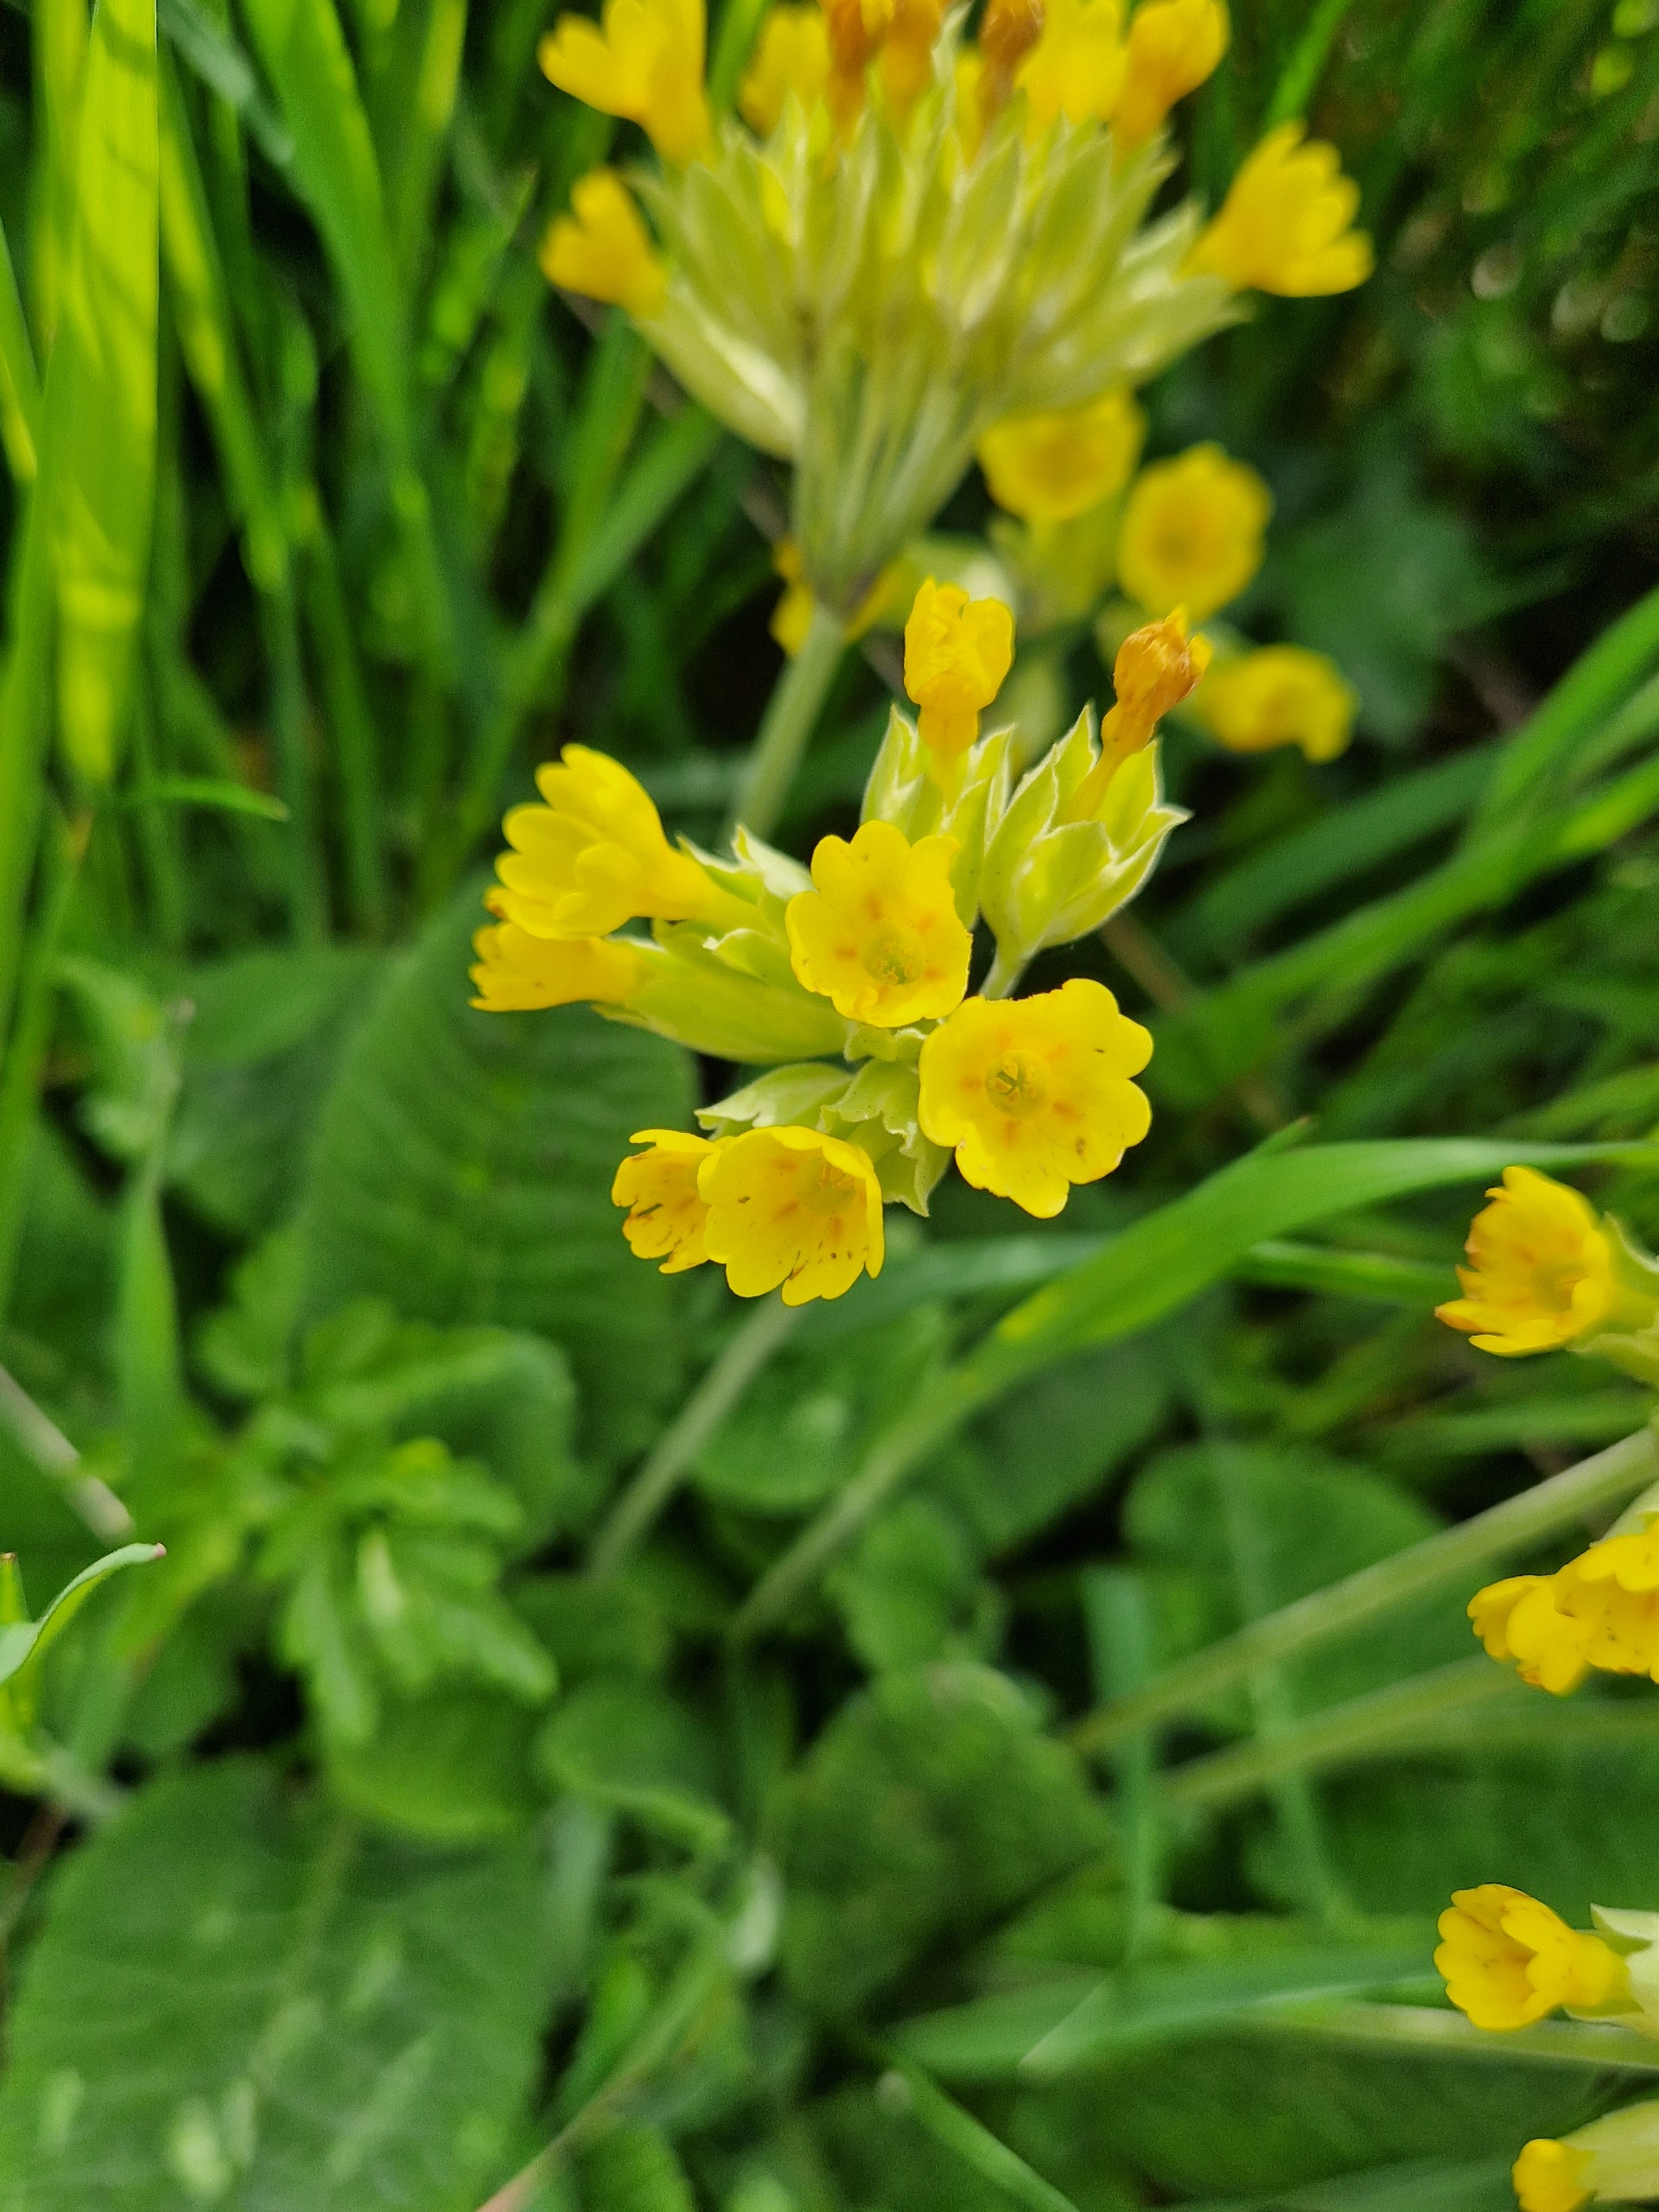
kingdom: Plantae
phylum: Tracheophyta
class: Magnoliopsida
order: Ericales
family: Primulaceae
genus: Primula
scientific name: Primula veris
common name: Hulkravet kodriver
